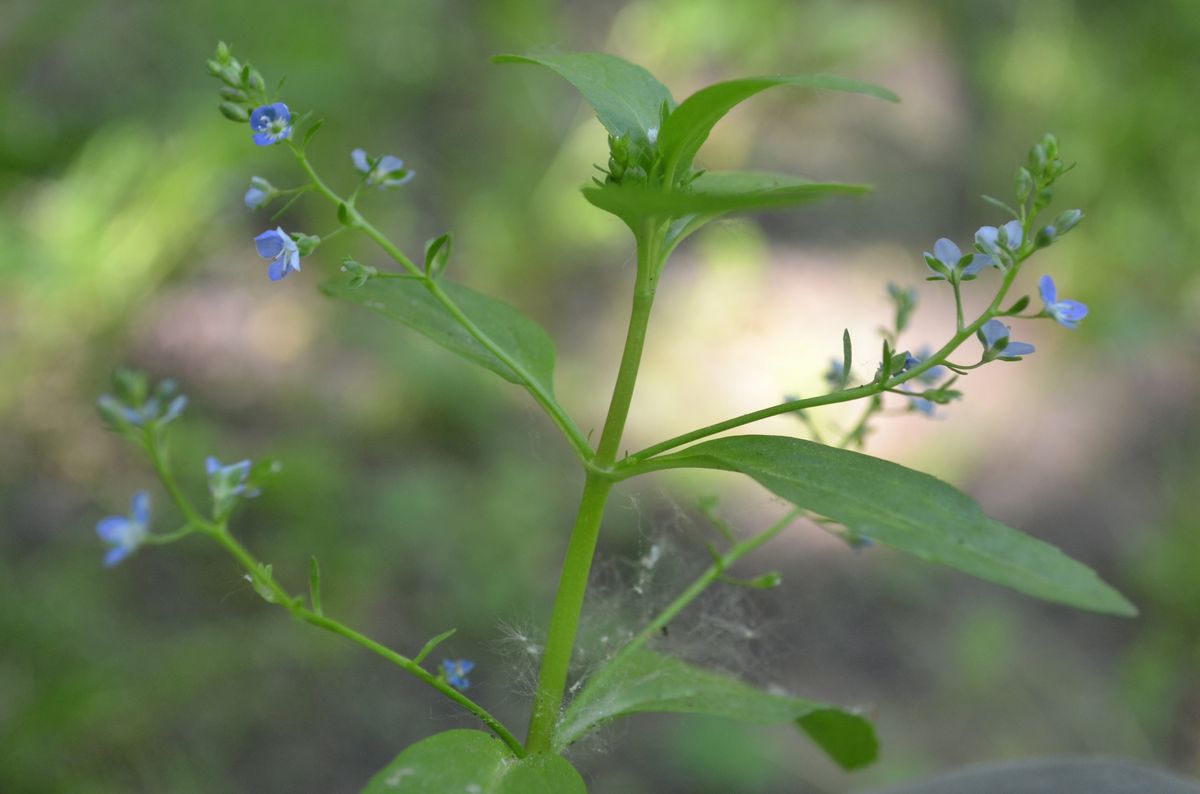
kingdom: Plantae
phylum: Tracheophyta
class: Magnoliopsida
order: Lamiales
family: Plantaginaceae
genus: Veronica
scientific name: Veronica beccabunga
